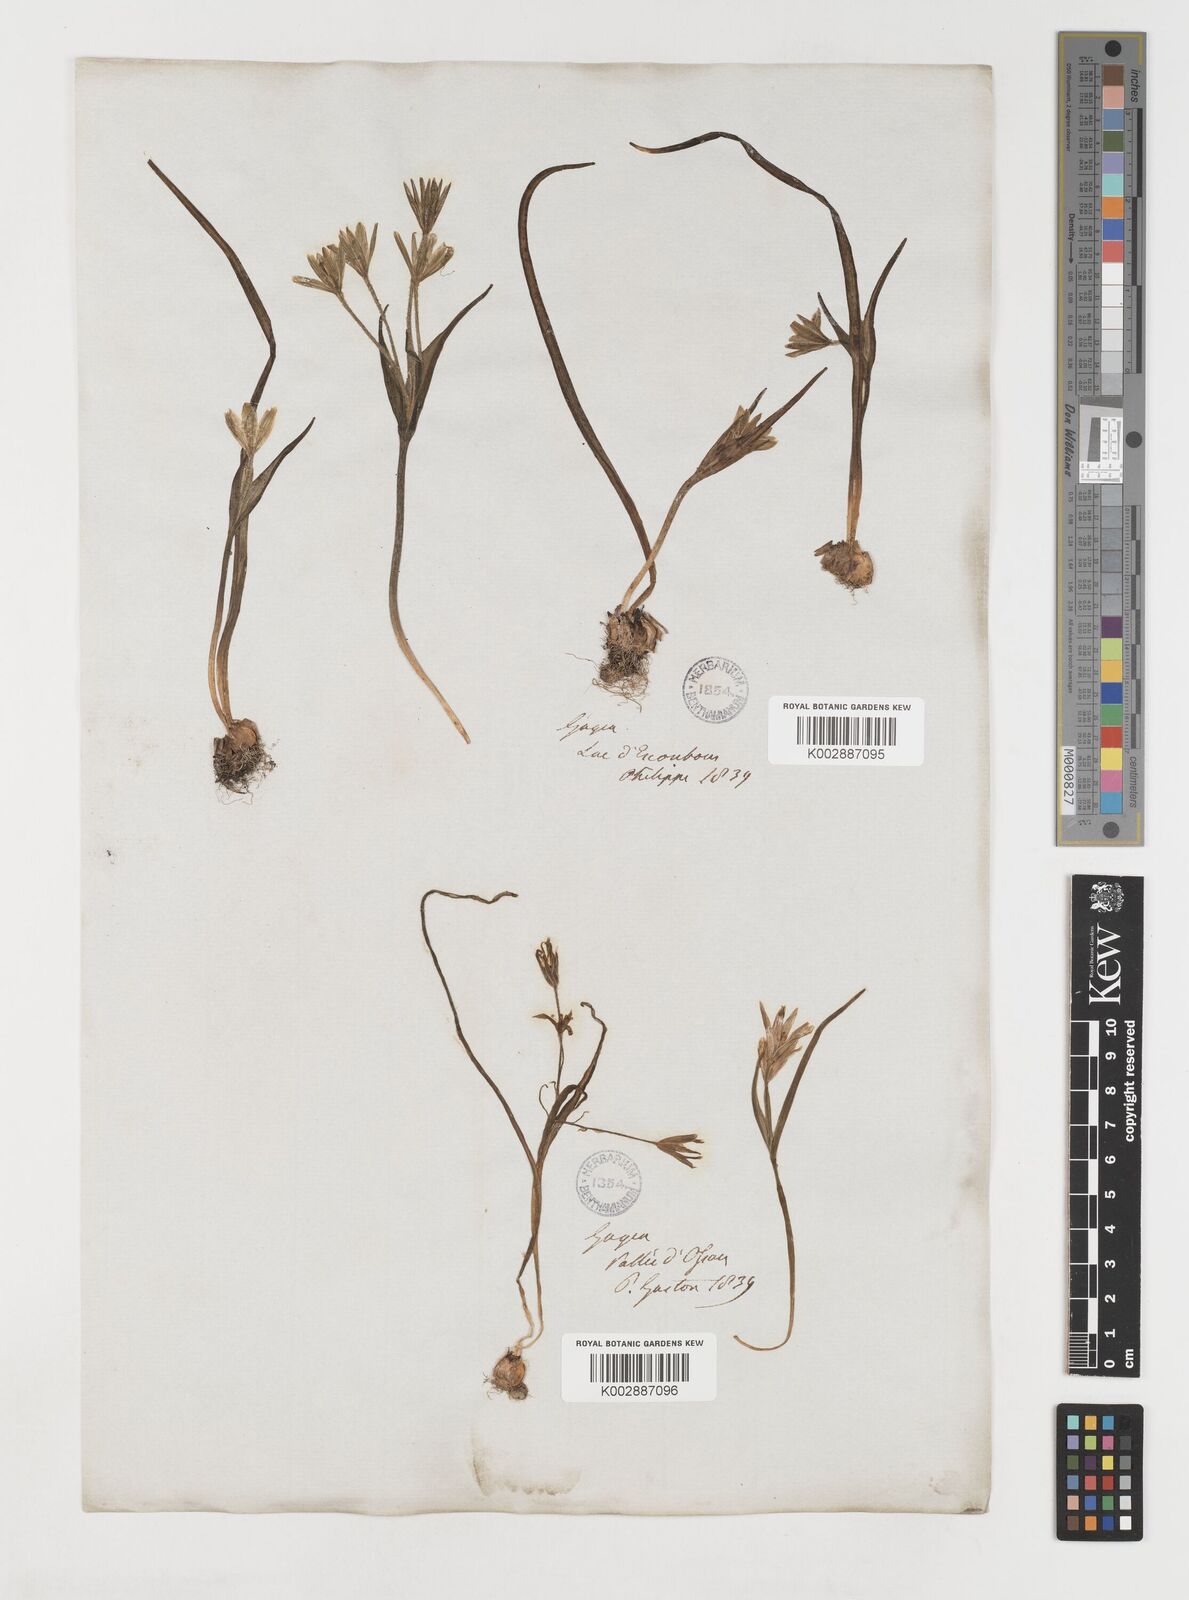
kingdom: Plantae
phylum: Tracheophyta
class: Liliopsida
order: Liliales
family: Liliaceae
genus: Gagea
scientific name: Gagea minima
